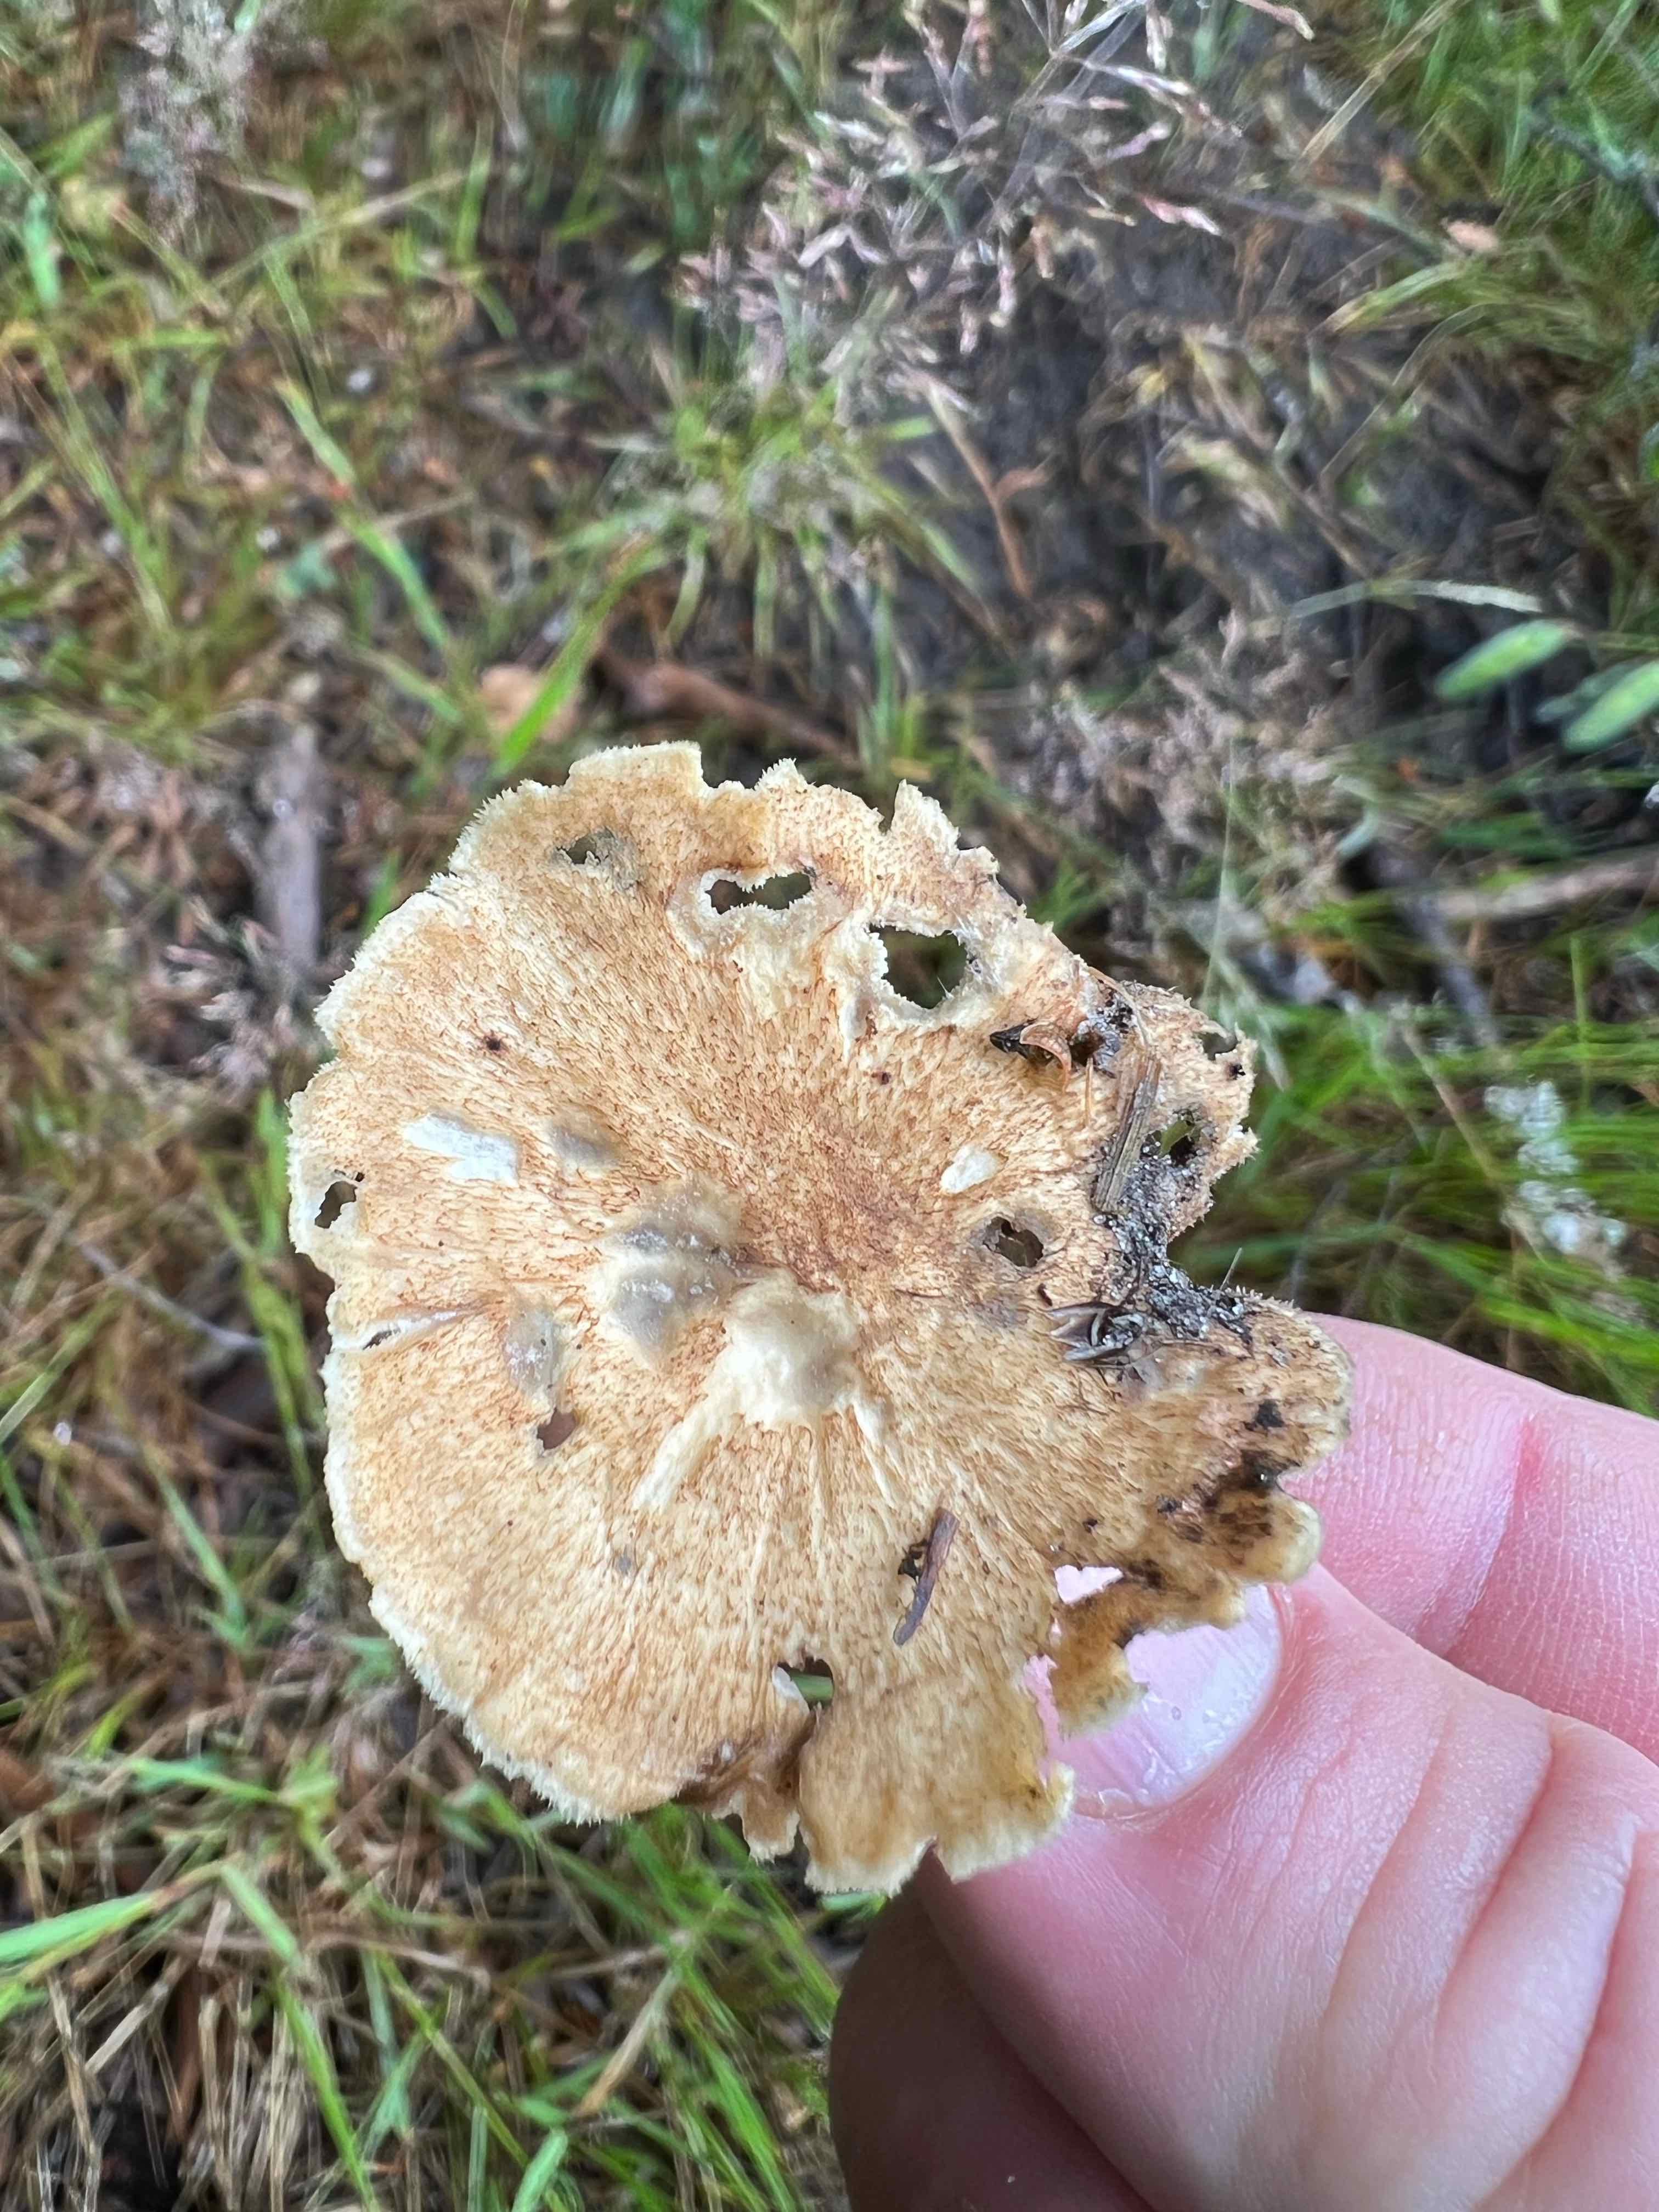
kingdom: Fungi
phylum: Basidiomycota
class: Agaricomycetes
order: Polyporales
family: Polyporaceae
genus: Polyporus
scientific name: Polyporus tuberaster
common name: knoldet stilkporesvamp
